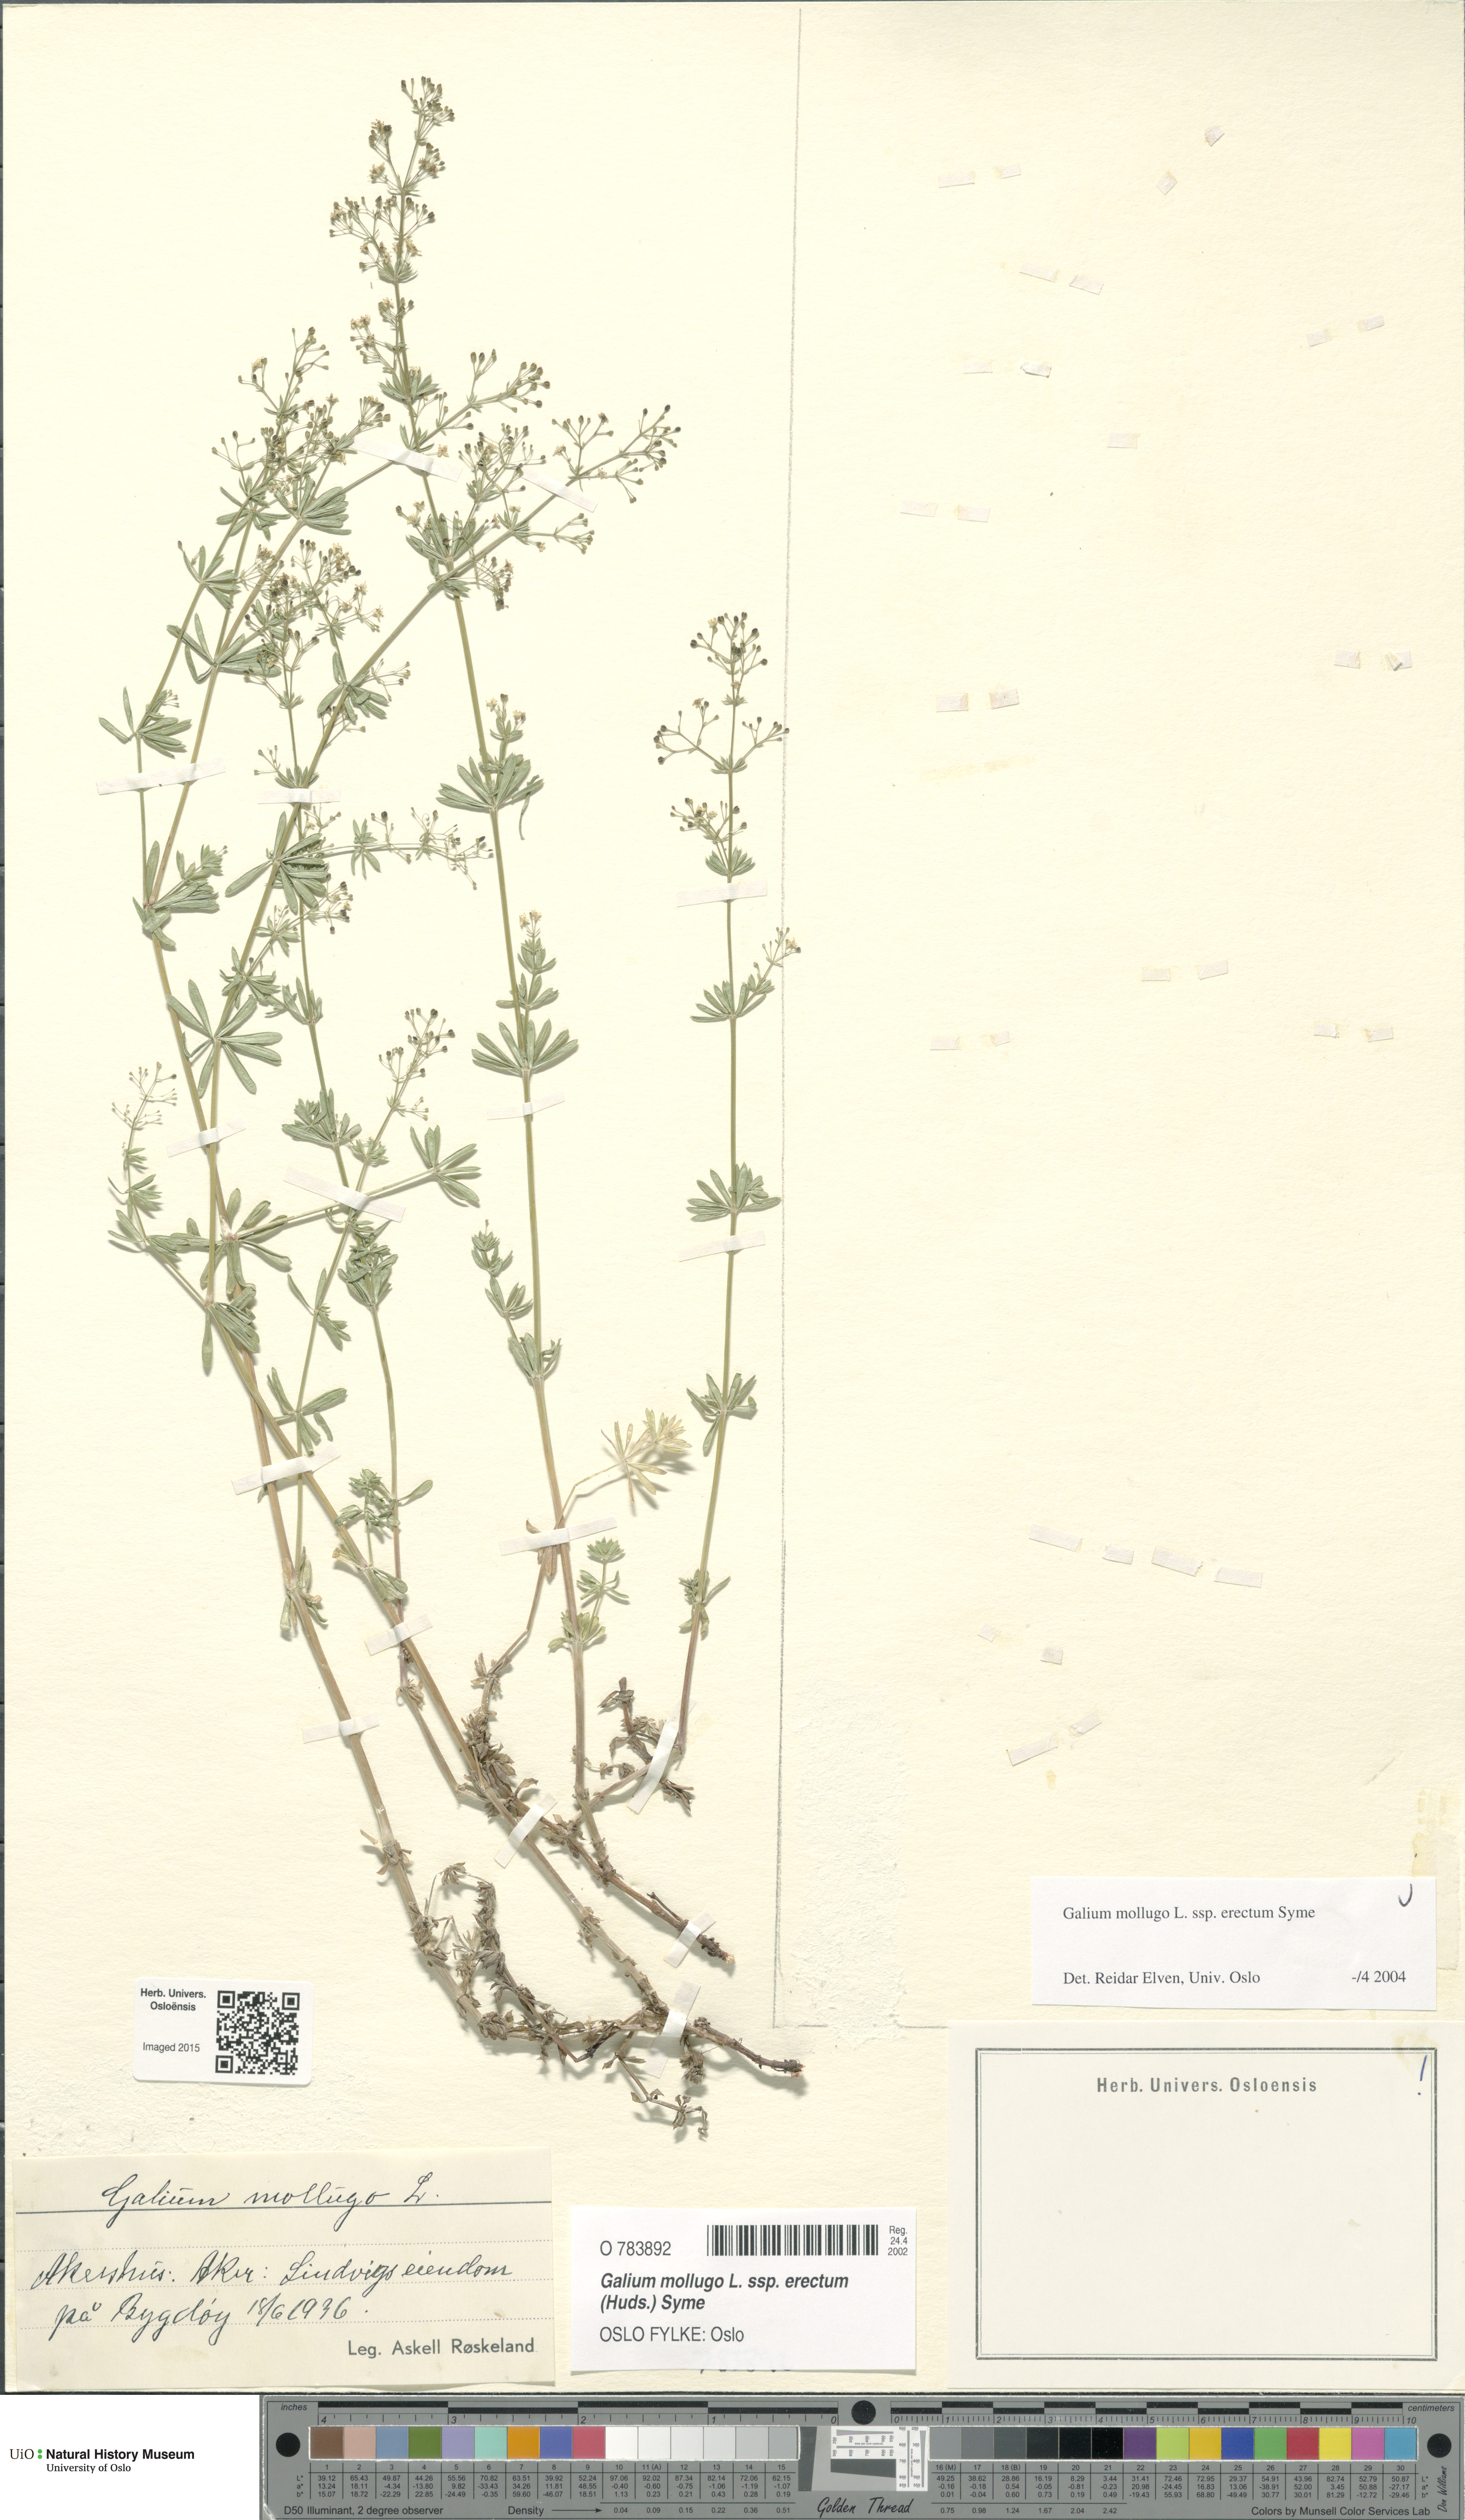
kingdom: Plantae
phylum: Tracheophyta
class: Magnoliopsida
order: Gentianales
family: Rubiaceae
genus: Galium
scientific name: Galium album
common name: White bedstraw
